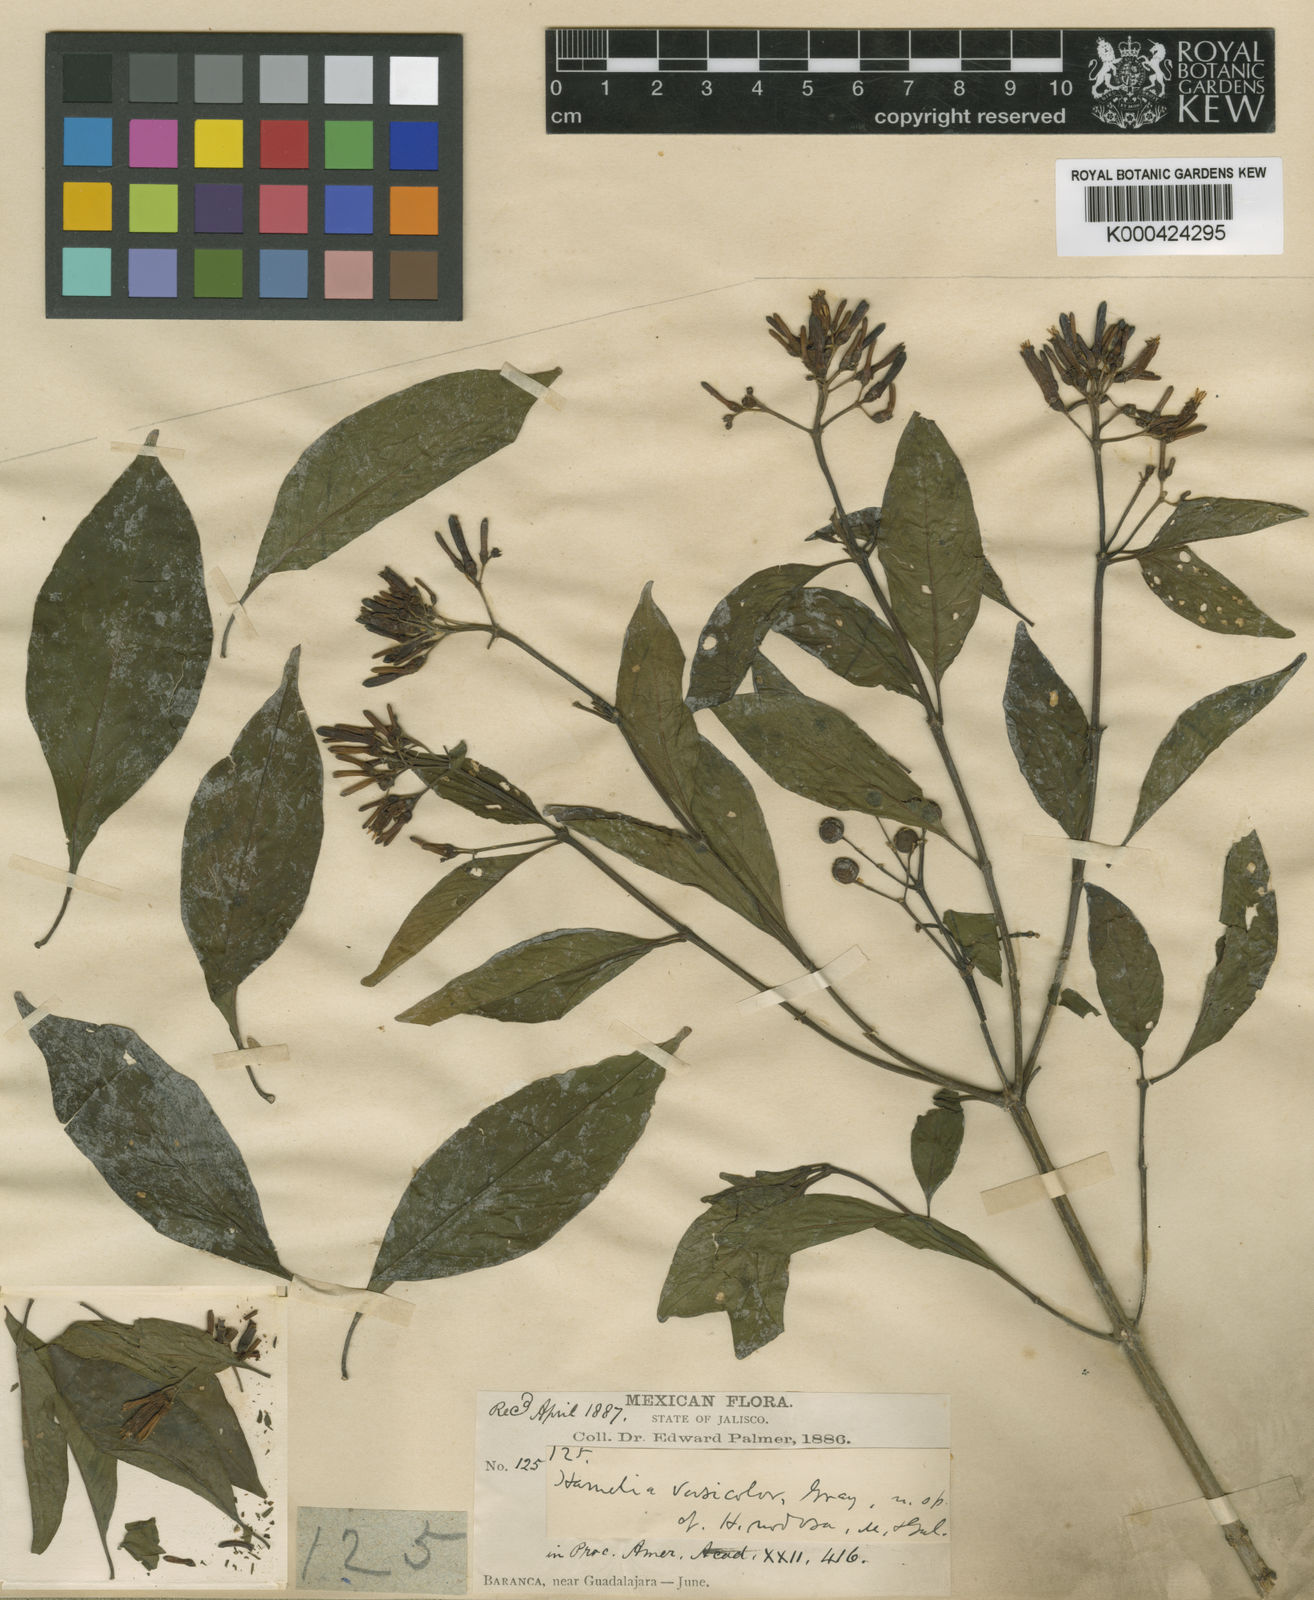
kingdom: Plantae
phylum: Tracheophyta
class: Magnoliopsida
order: Gentianales
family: Rubiaceae
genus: Hamelia
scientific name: Hamelia rostrata
